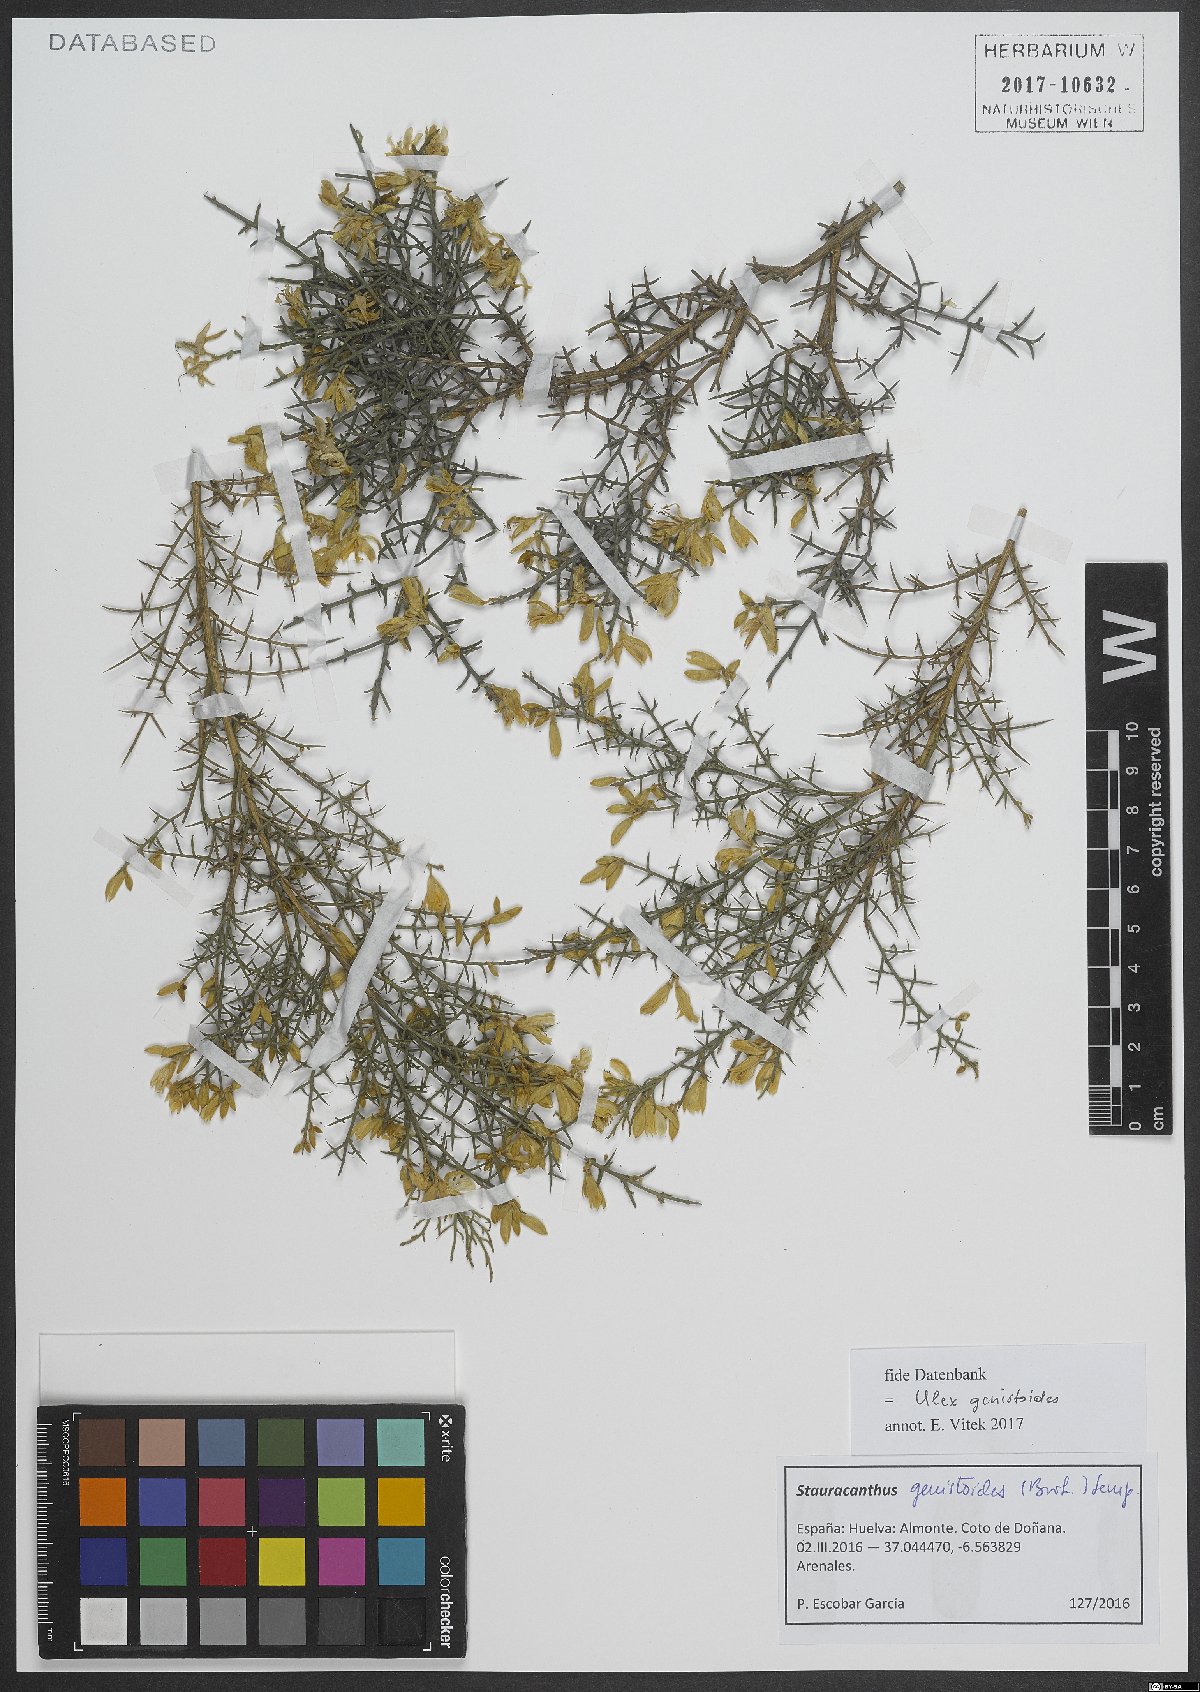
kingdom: Plantae
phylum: Tracheophyta
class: Magnoliopsida
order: Fabales
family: Fabaceae
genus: Stauracanthus
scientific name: Stauracanthus genistoides
